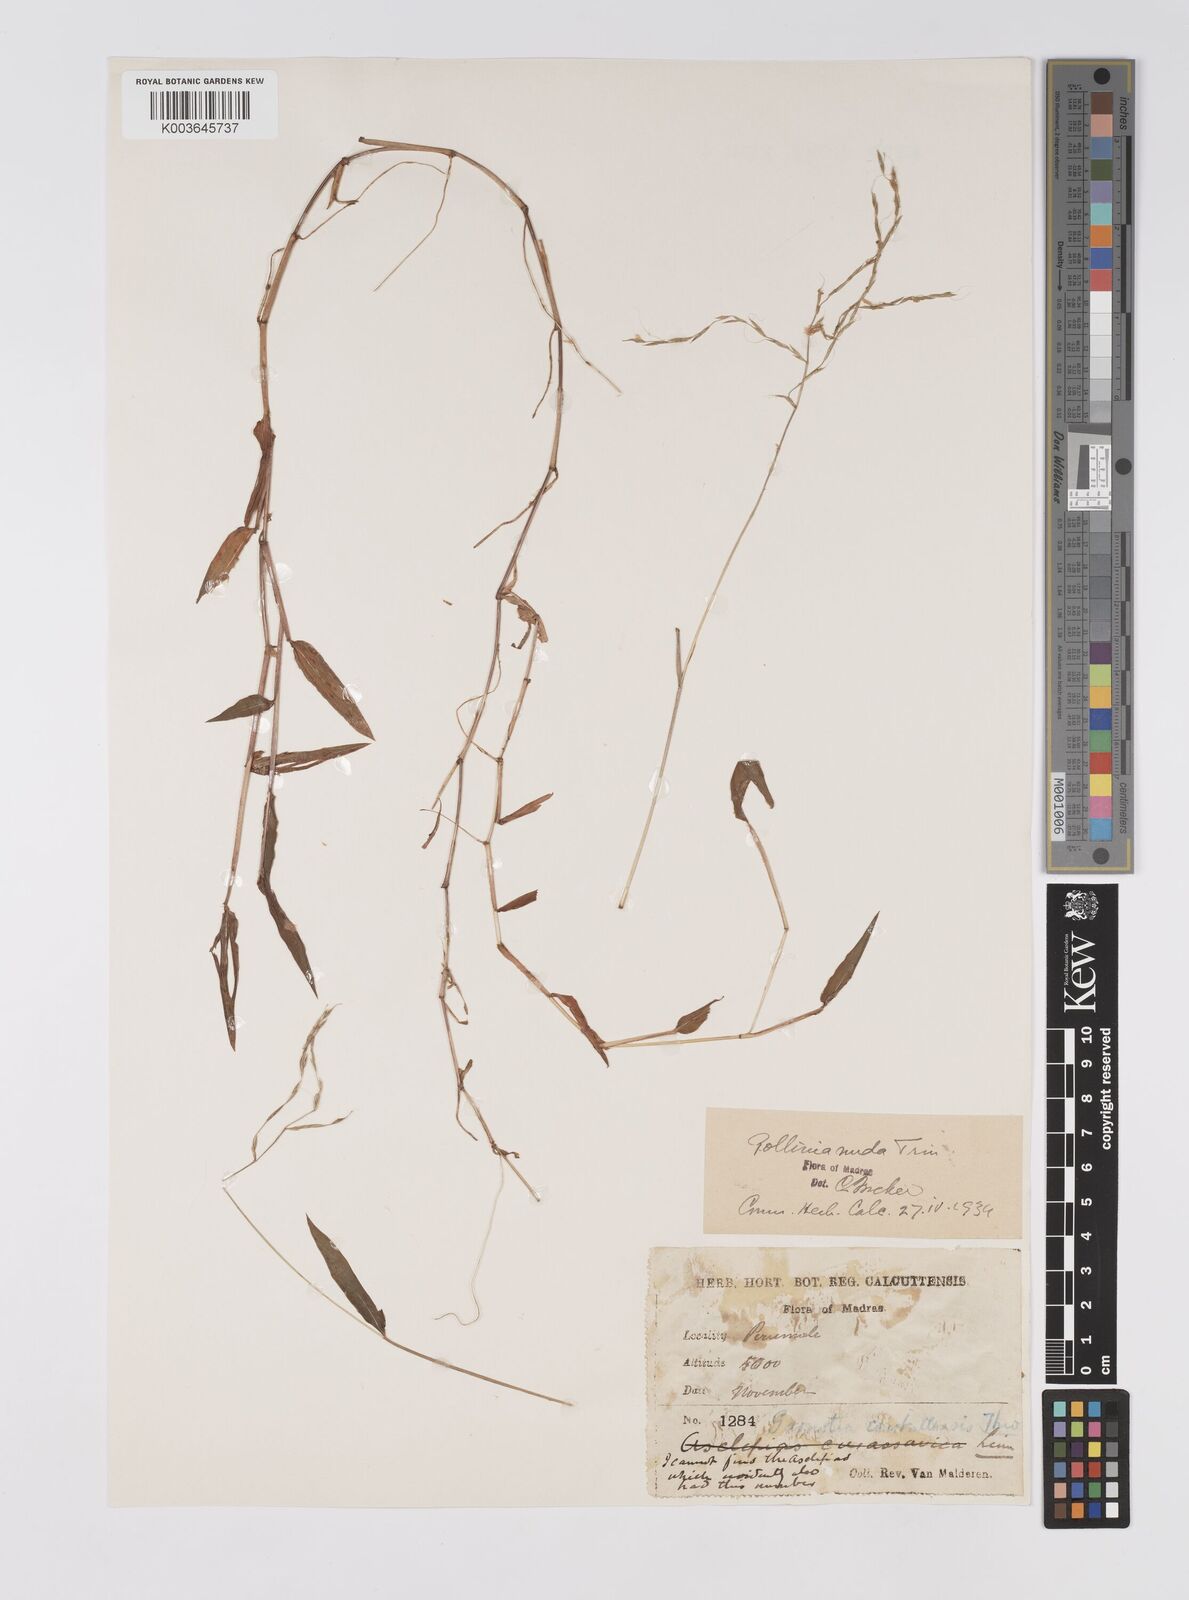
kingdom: Plantae
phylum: Tracheophyta
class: Liliopsida
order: Poales
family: Poaceae
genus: Microstegium
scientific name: Microstegium nudum
